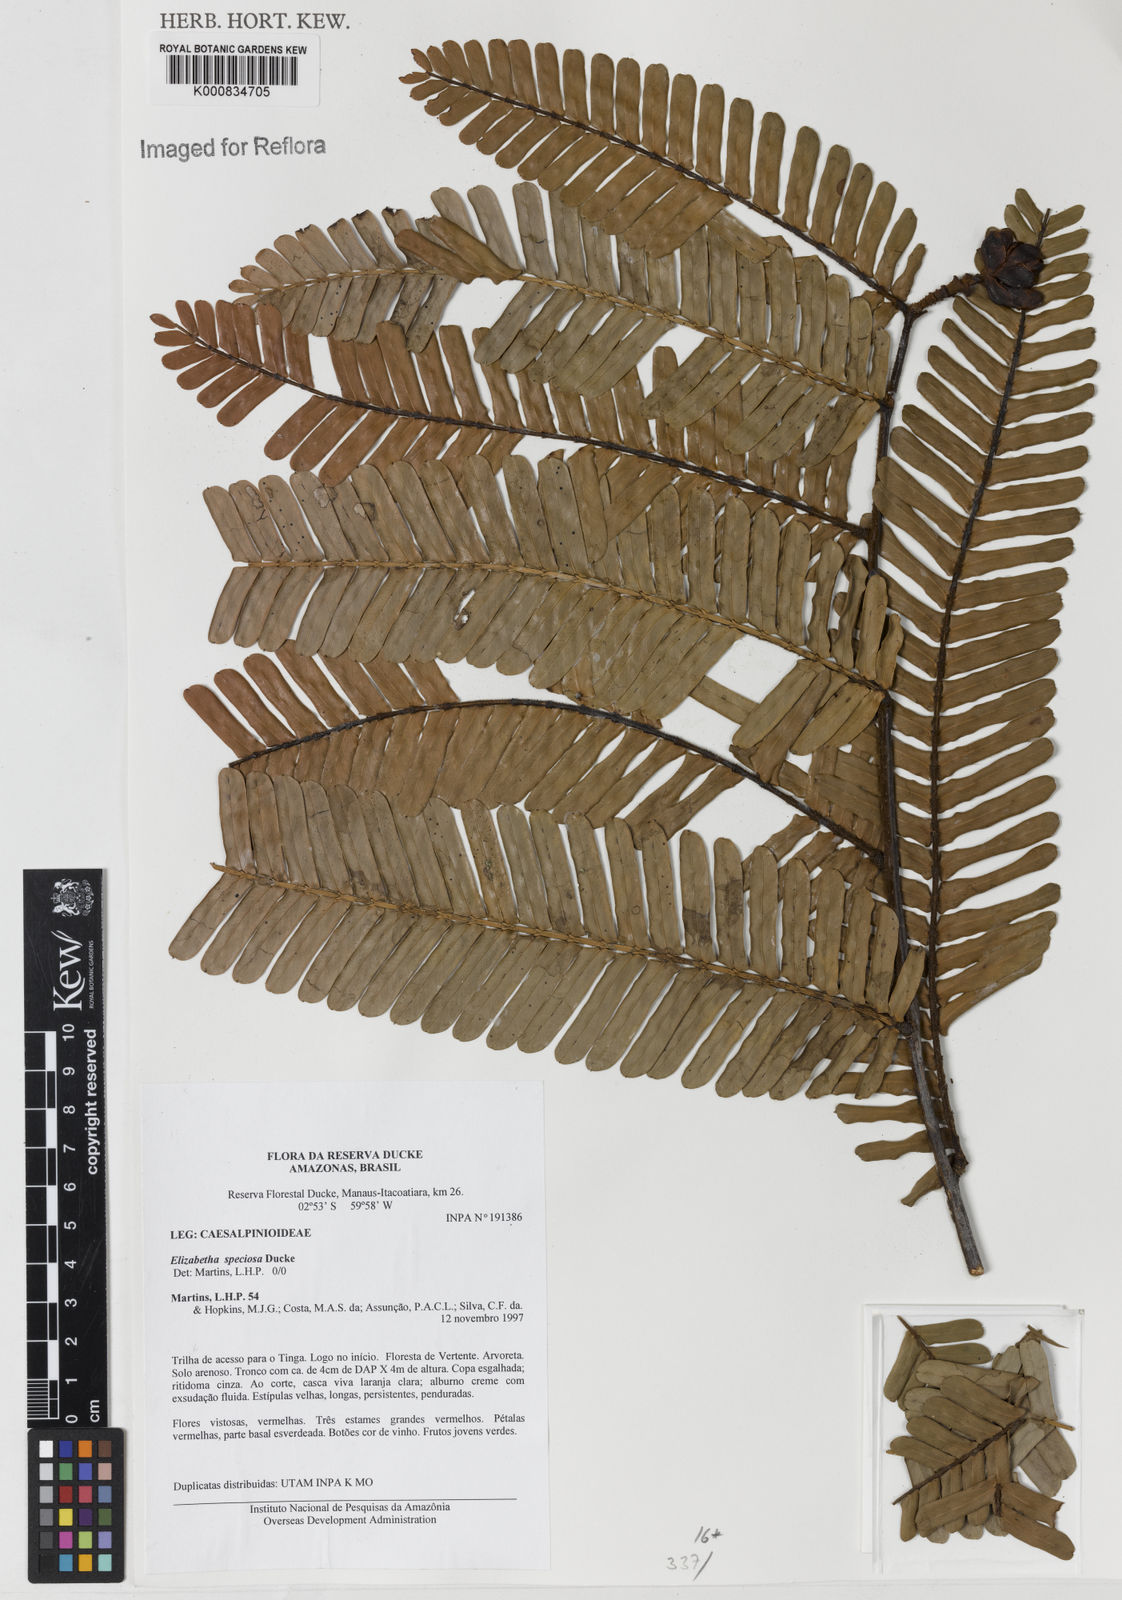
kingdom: Plantae
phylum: Tracheophyta
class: Magnoliopsida
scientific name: Magnoliopsida
